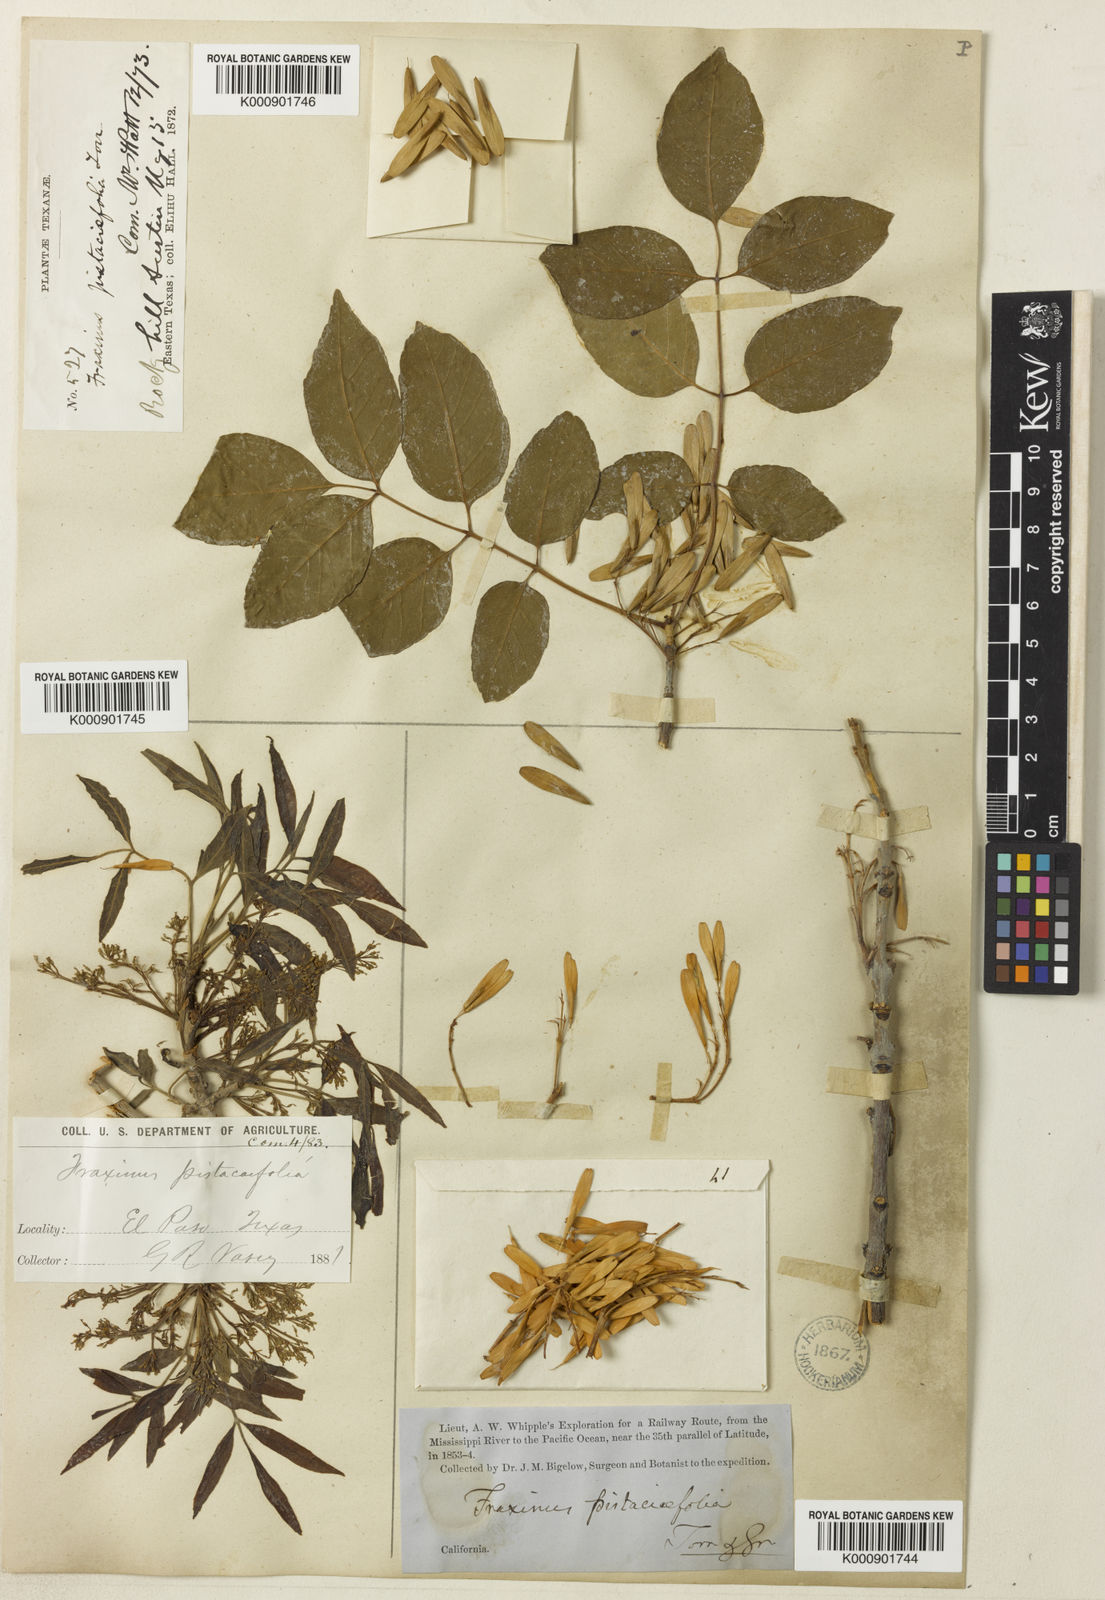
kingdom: Plantae
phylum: Tracheophyta
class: Magnoliopsida
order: Lamiales
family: Oleaceae
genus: Fraxinus
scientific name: Fraxinus velutina
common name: Arizon ash
